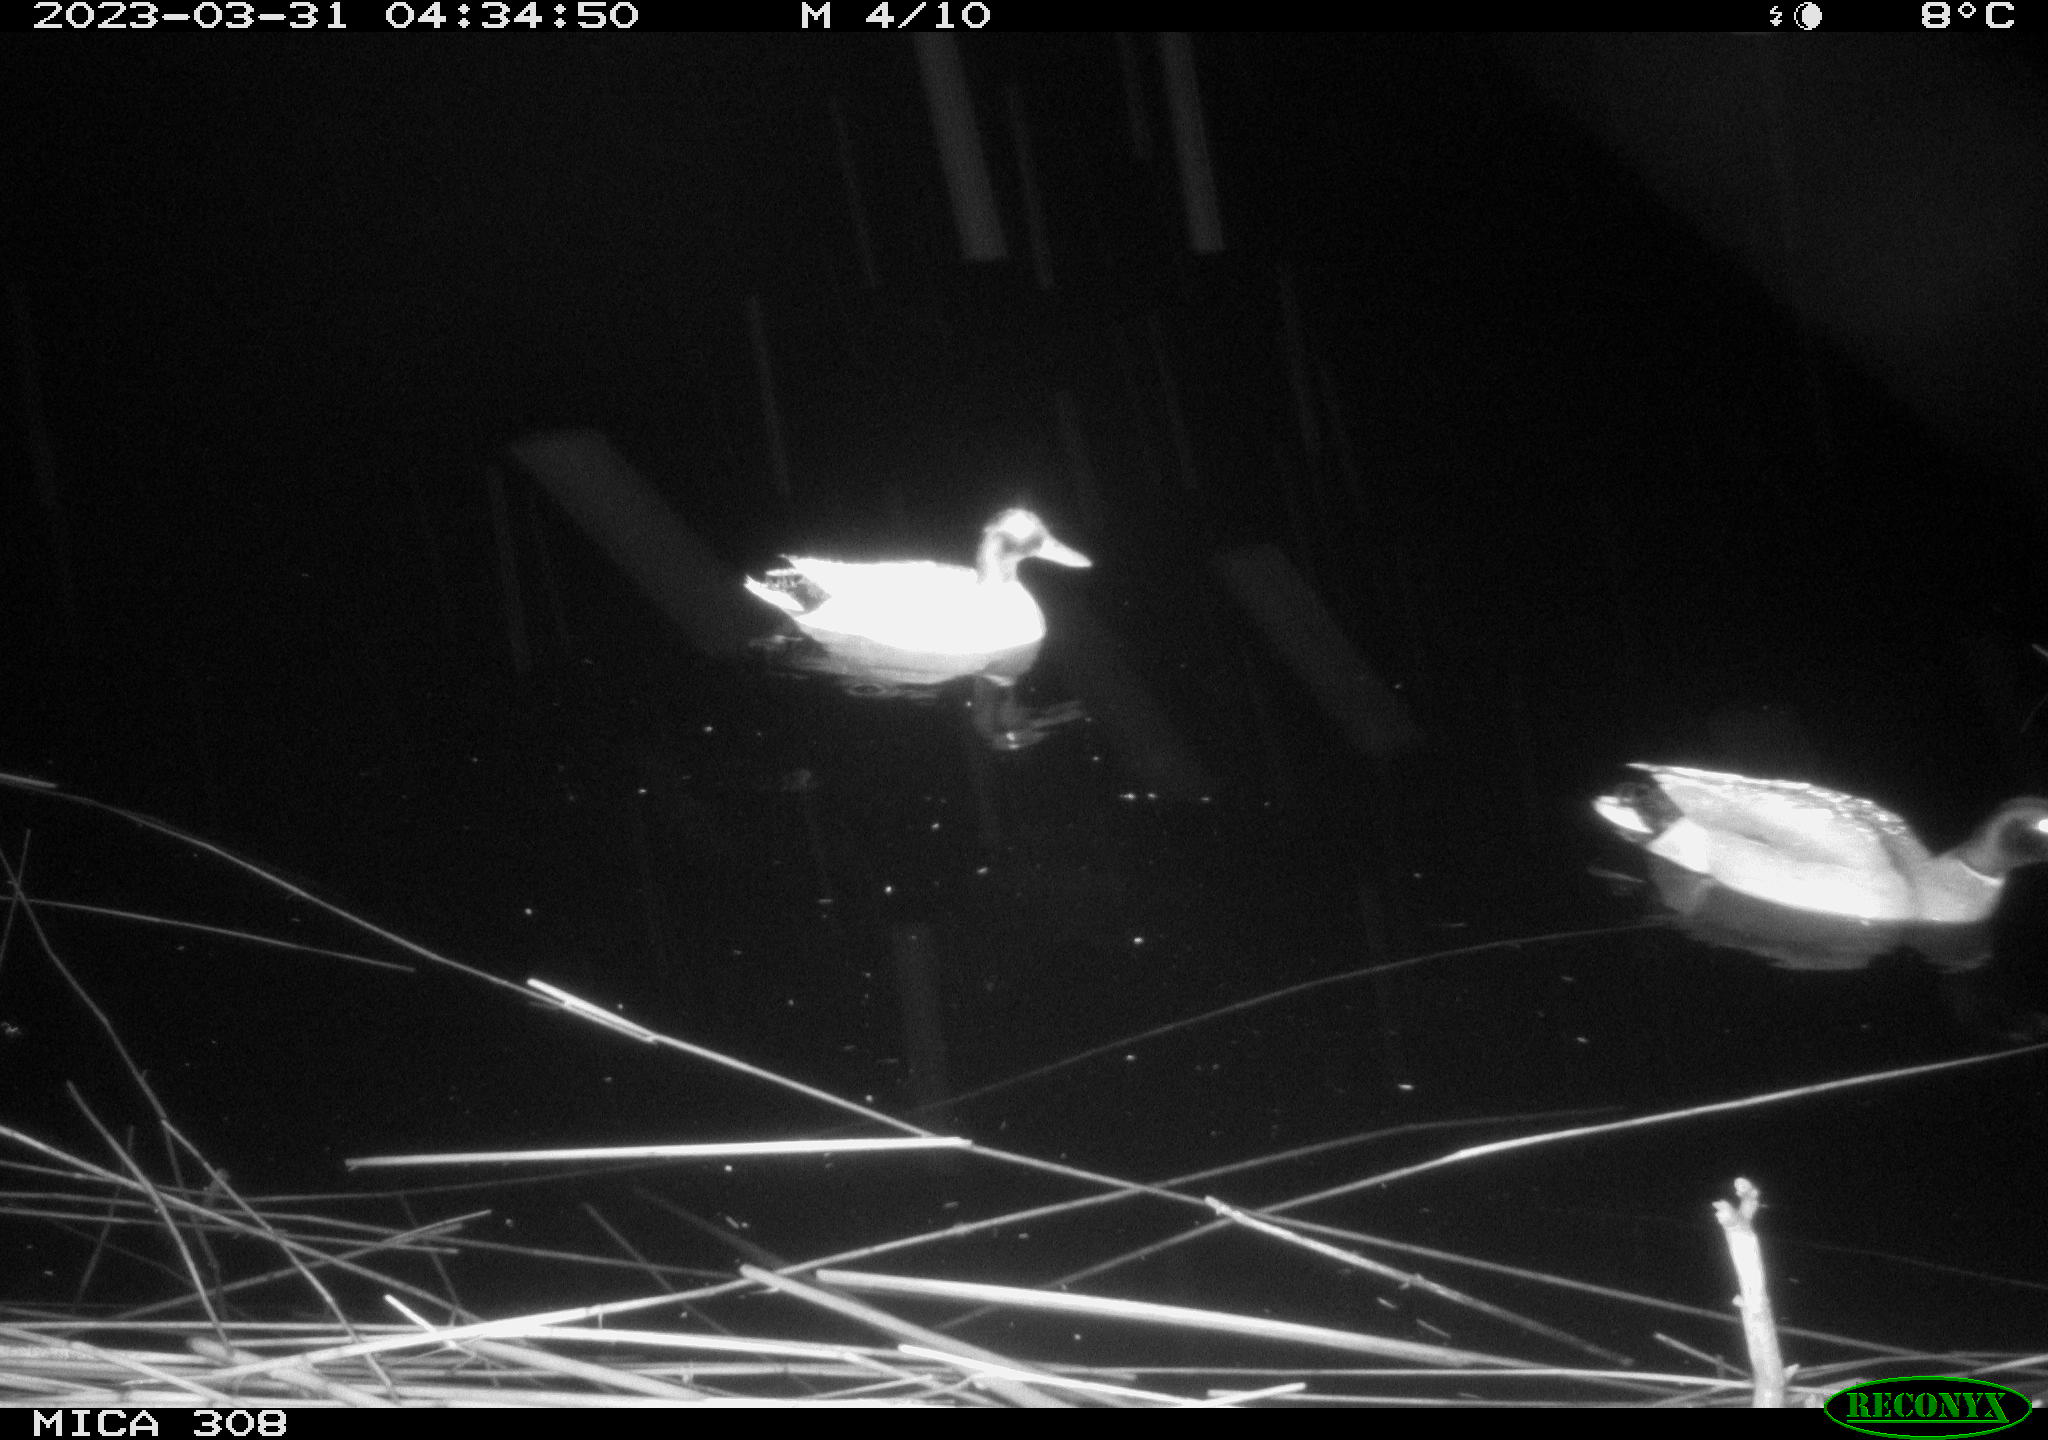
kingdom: Animalia
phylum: Chordata
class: Aves
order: Anseriformes
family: Anatidae
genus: Anas
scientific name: Anas
